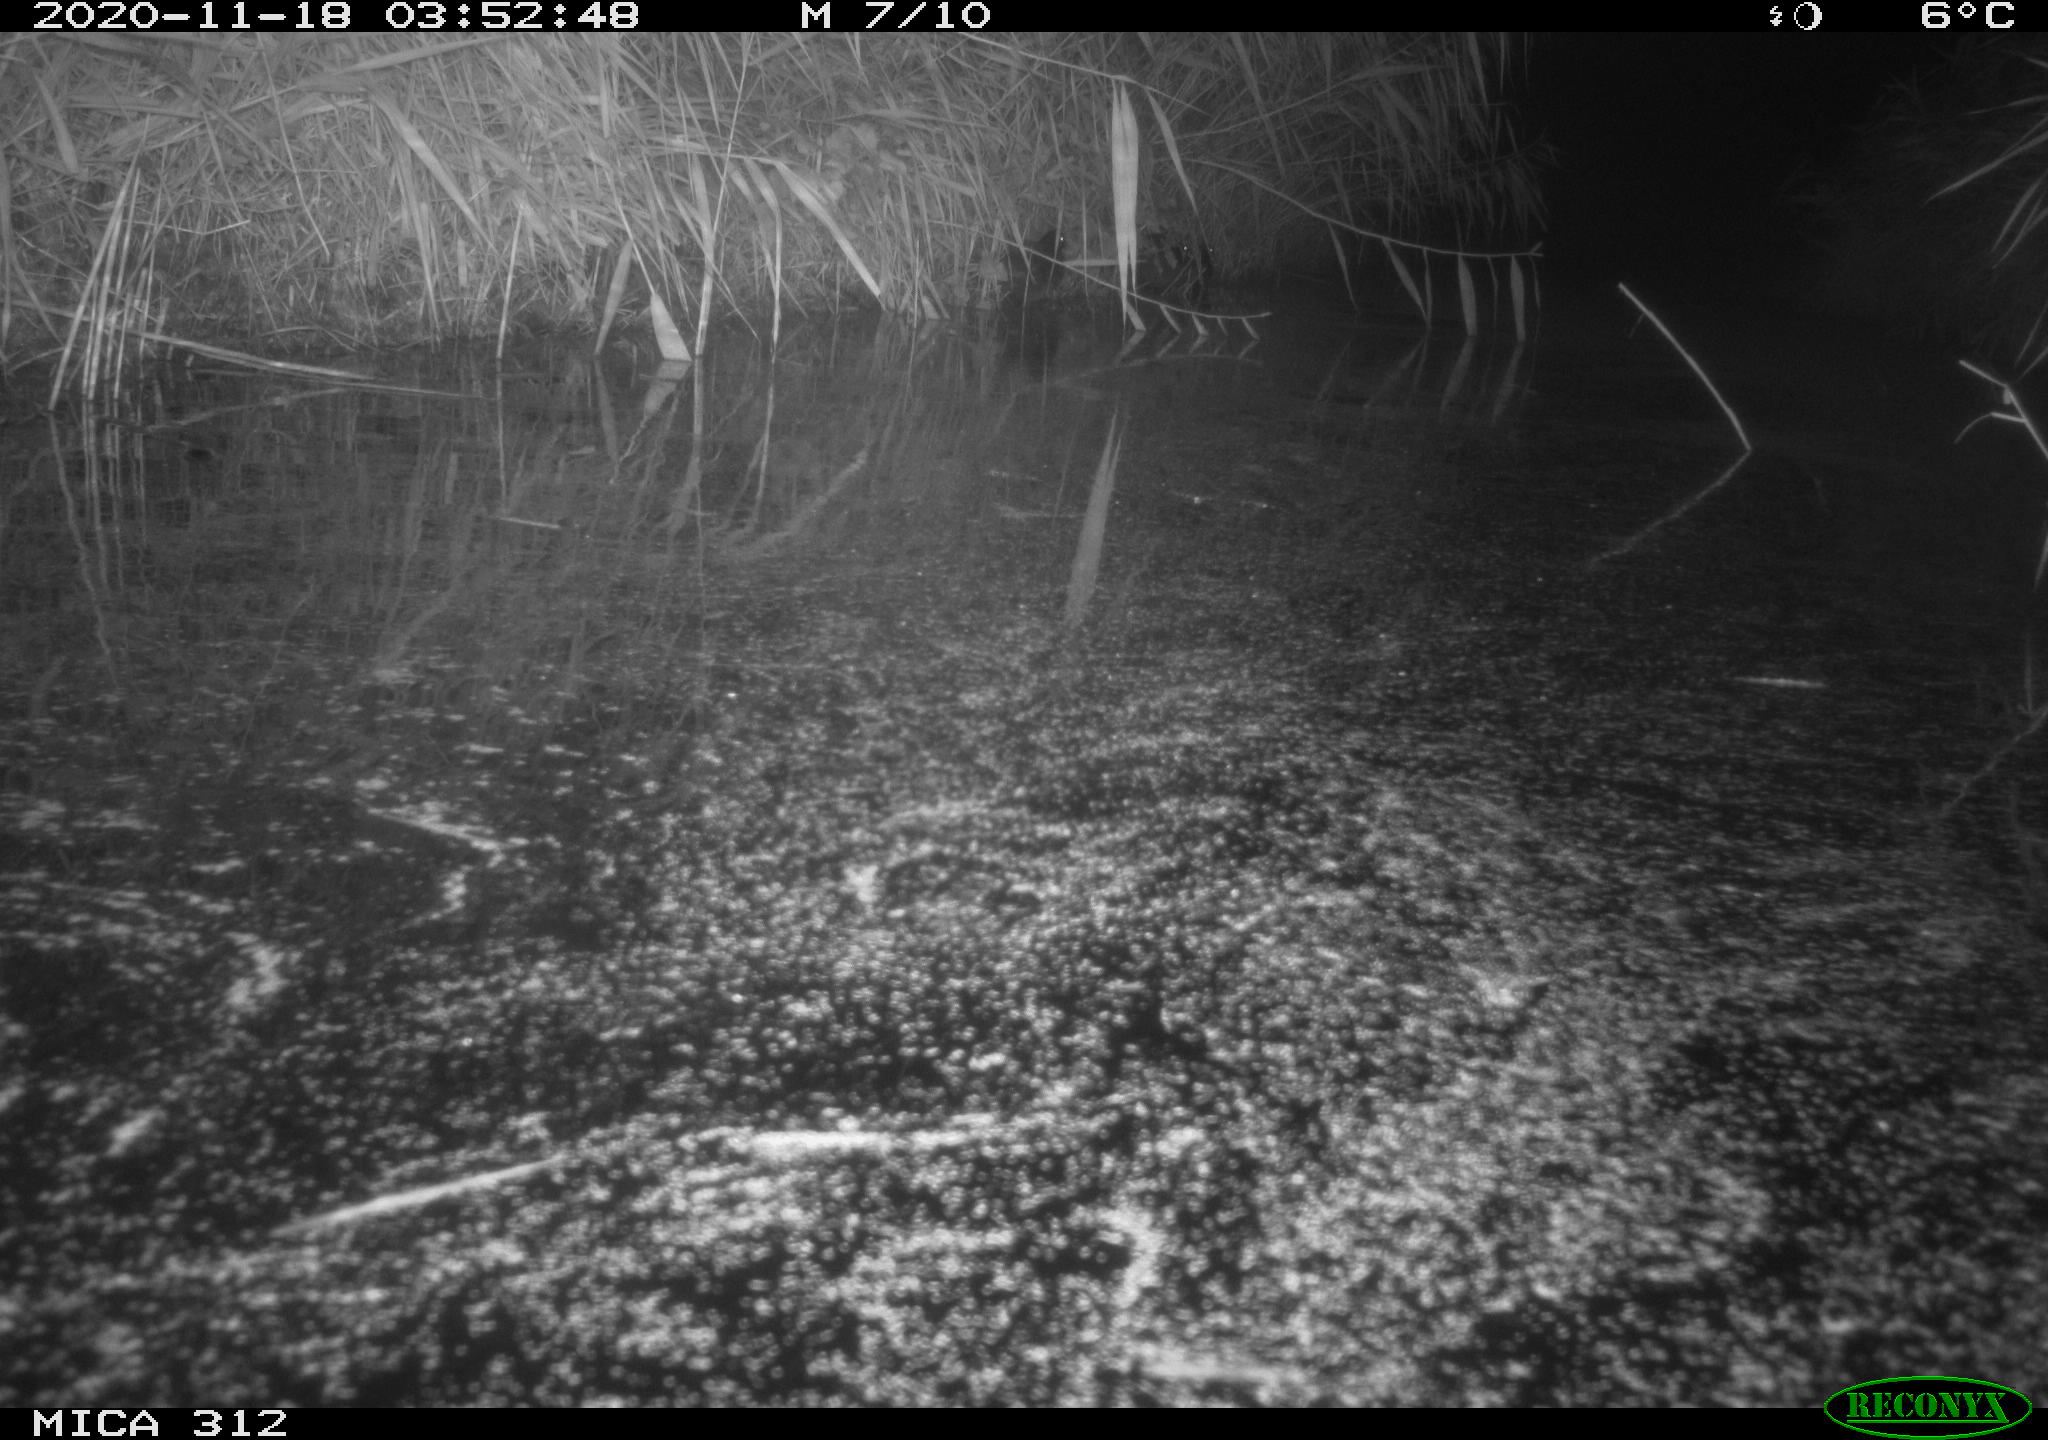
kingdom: Animalia
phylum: Chordata
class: Mammalia
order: Rodentia
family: Muridae
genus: Rattus
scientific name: Rattus norvegicus
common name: Brown rat
